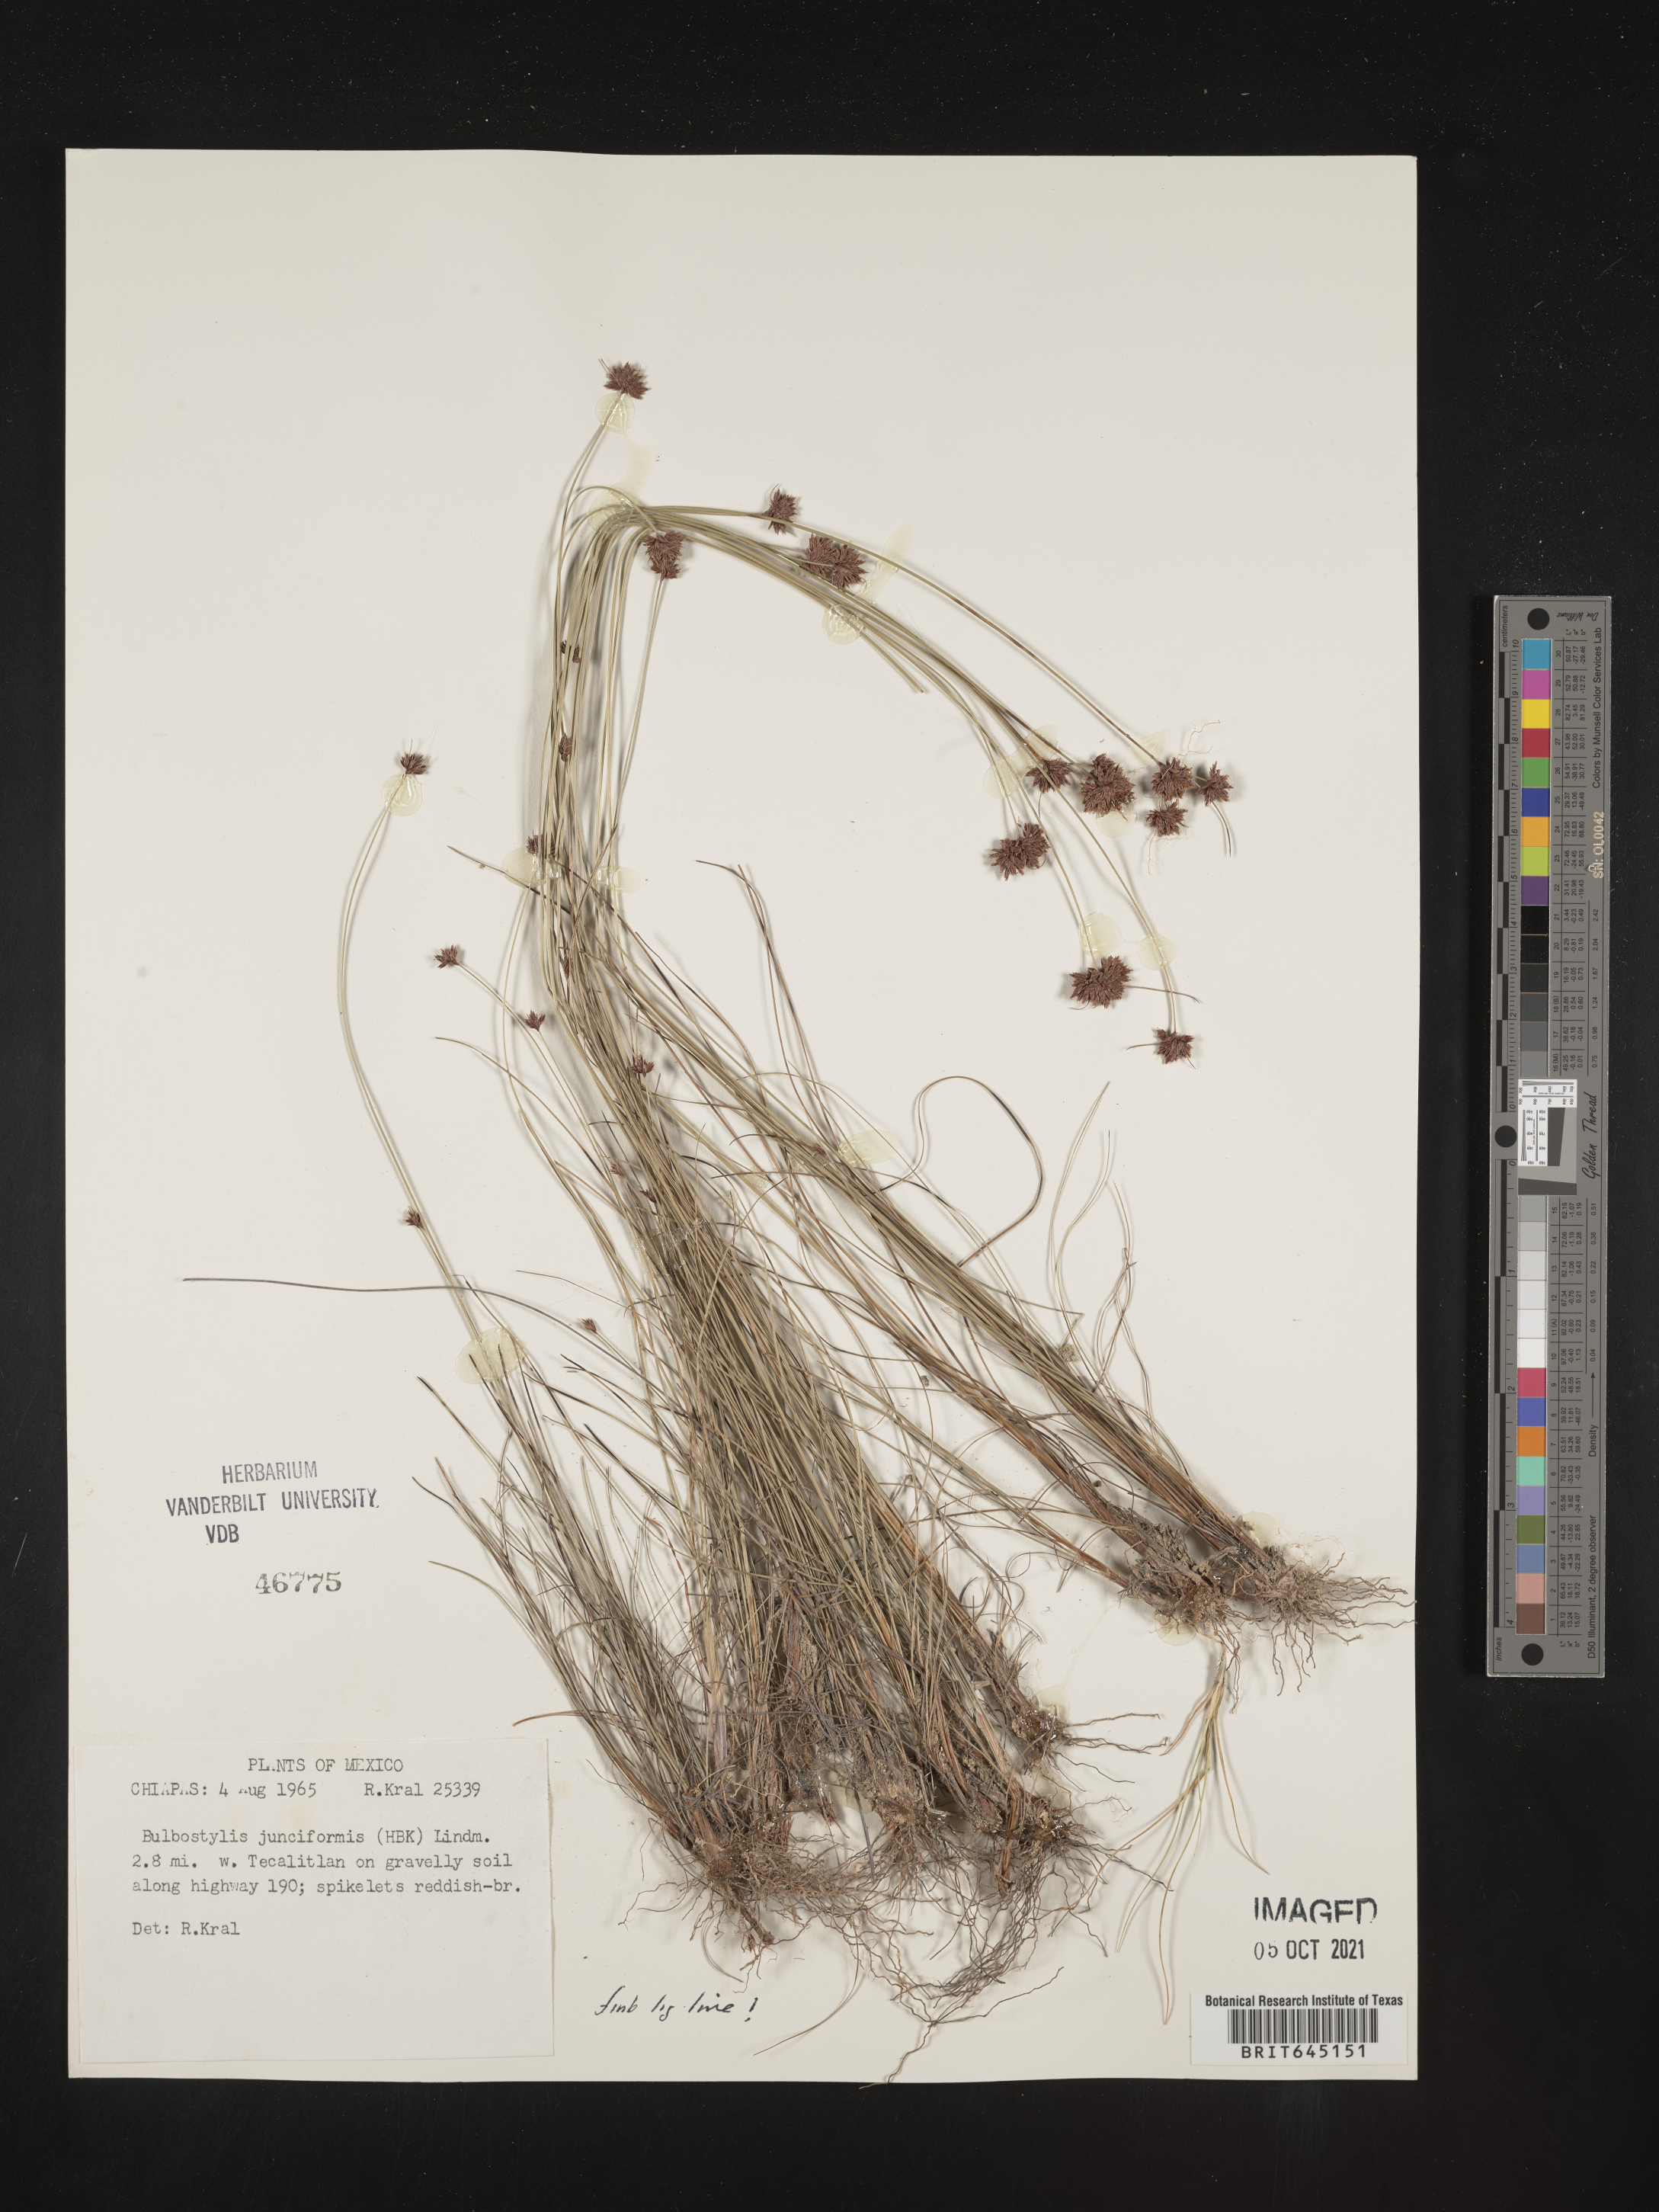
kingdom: Plantae
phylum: Tracheophyta
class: Liliopsida
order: Poales
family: Cyperaceae
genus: Bulbostylis
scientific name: Bulbostylis junciformis
